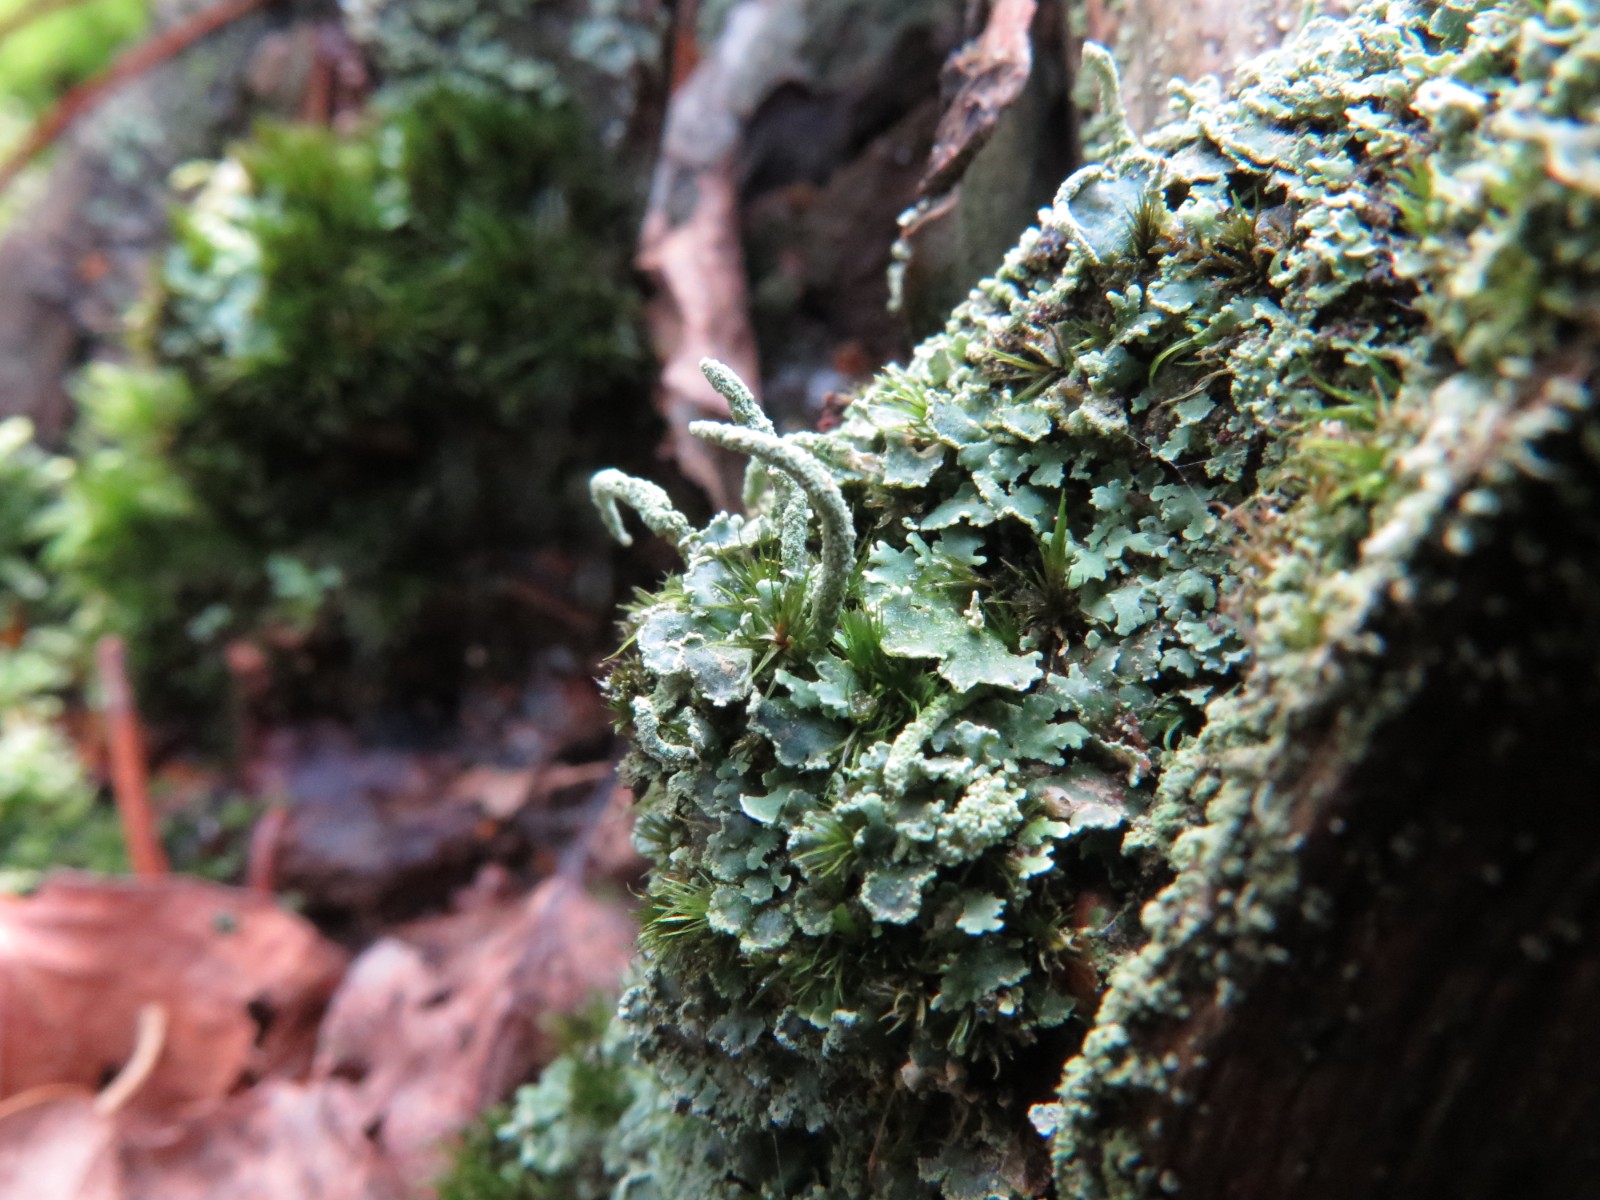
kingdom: Fungi
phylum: Ascomycota
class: Lecanoromycetes
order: Lecanorales
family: Cladoniaceae
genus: Cladonia
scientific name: Cladonia digitata
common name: finger-bægerlav
